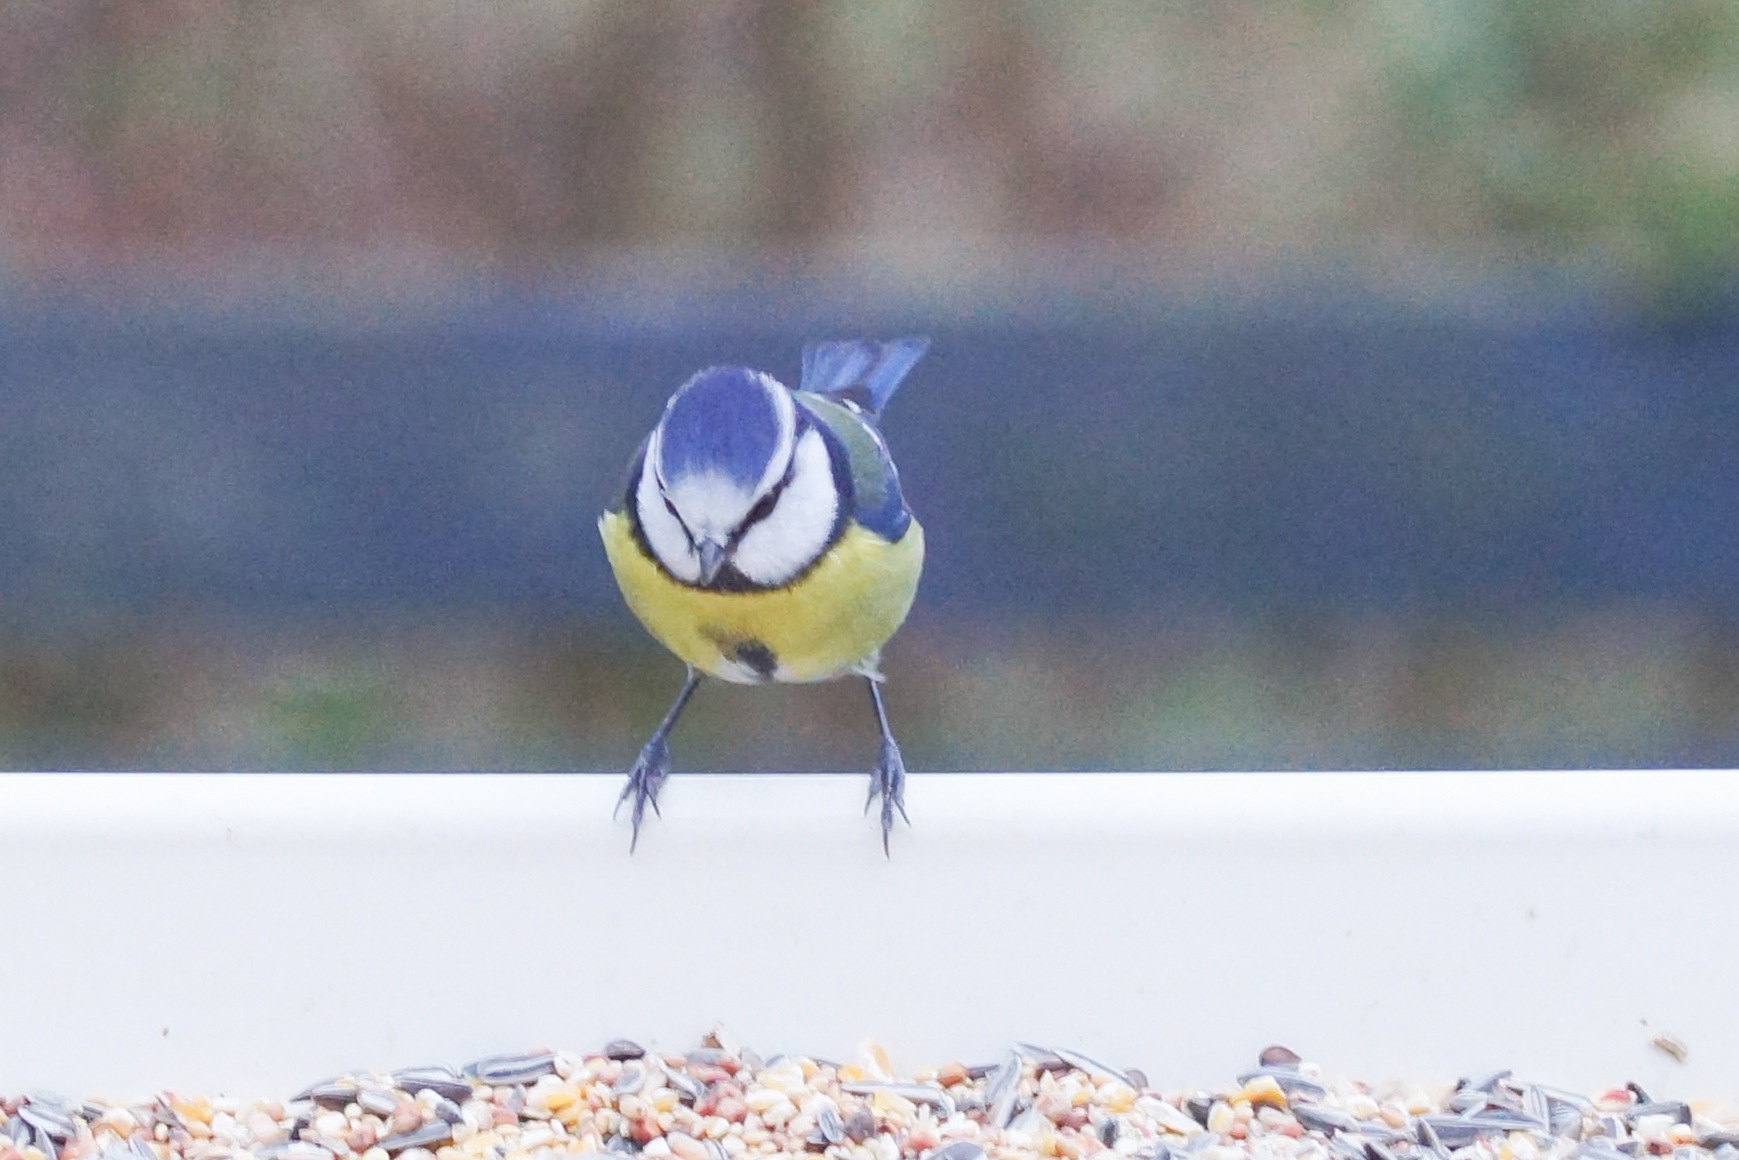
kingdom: Animalia
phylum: Chordata
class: Aves
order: Passeriformes
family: Paridae
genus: Cyanistes
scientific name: Cyanistes caeruleus
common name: Blåmejse
